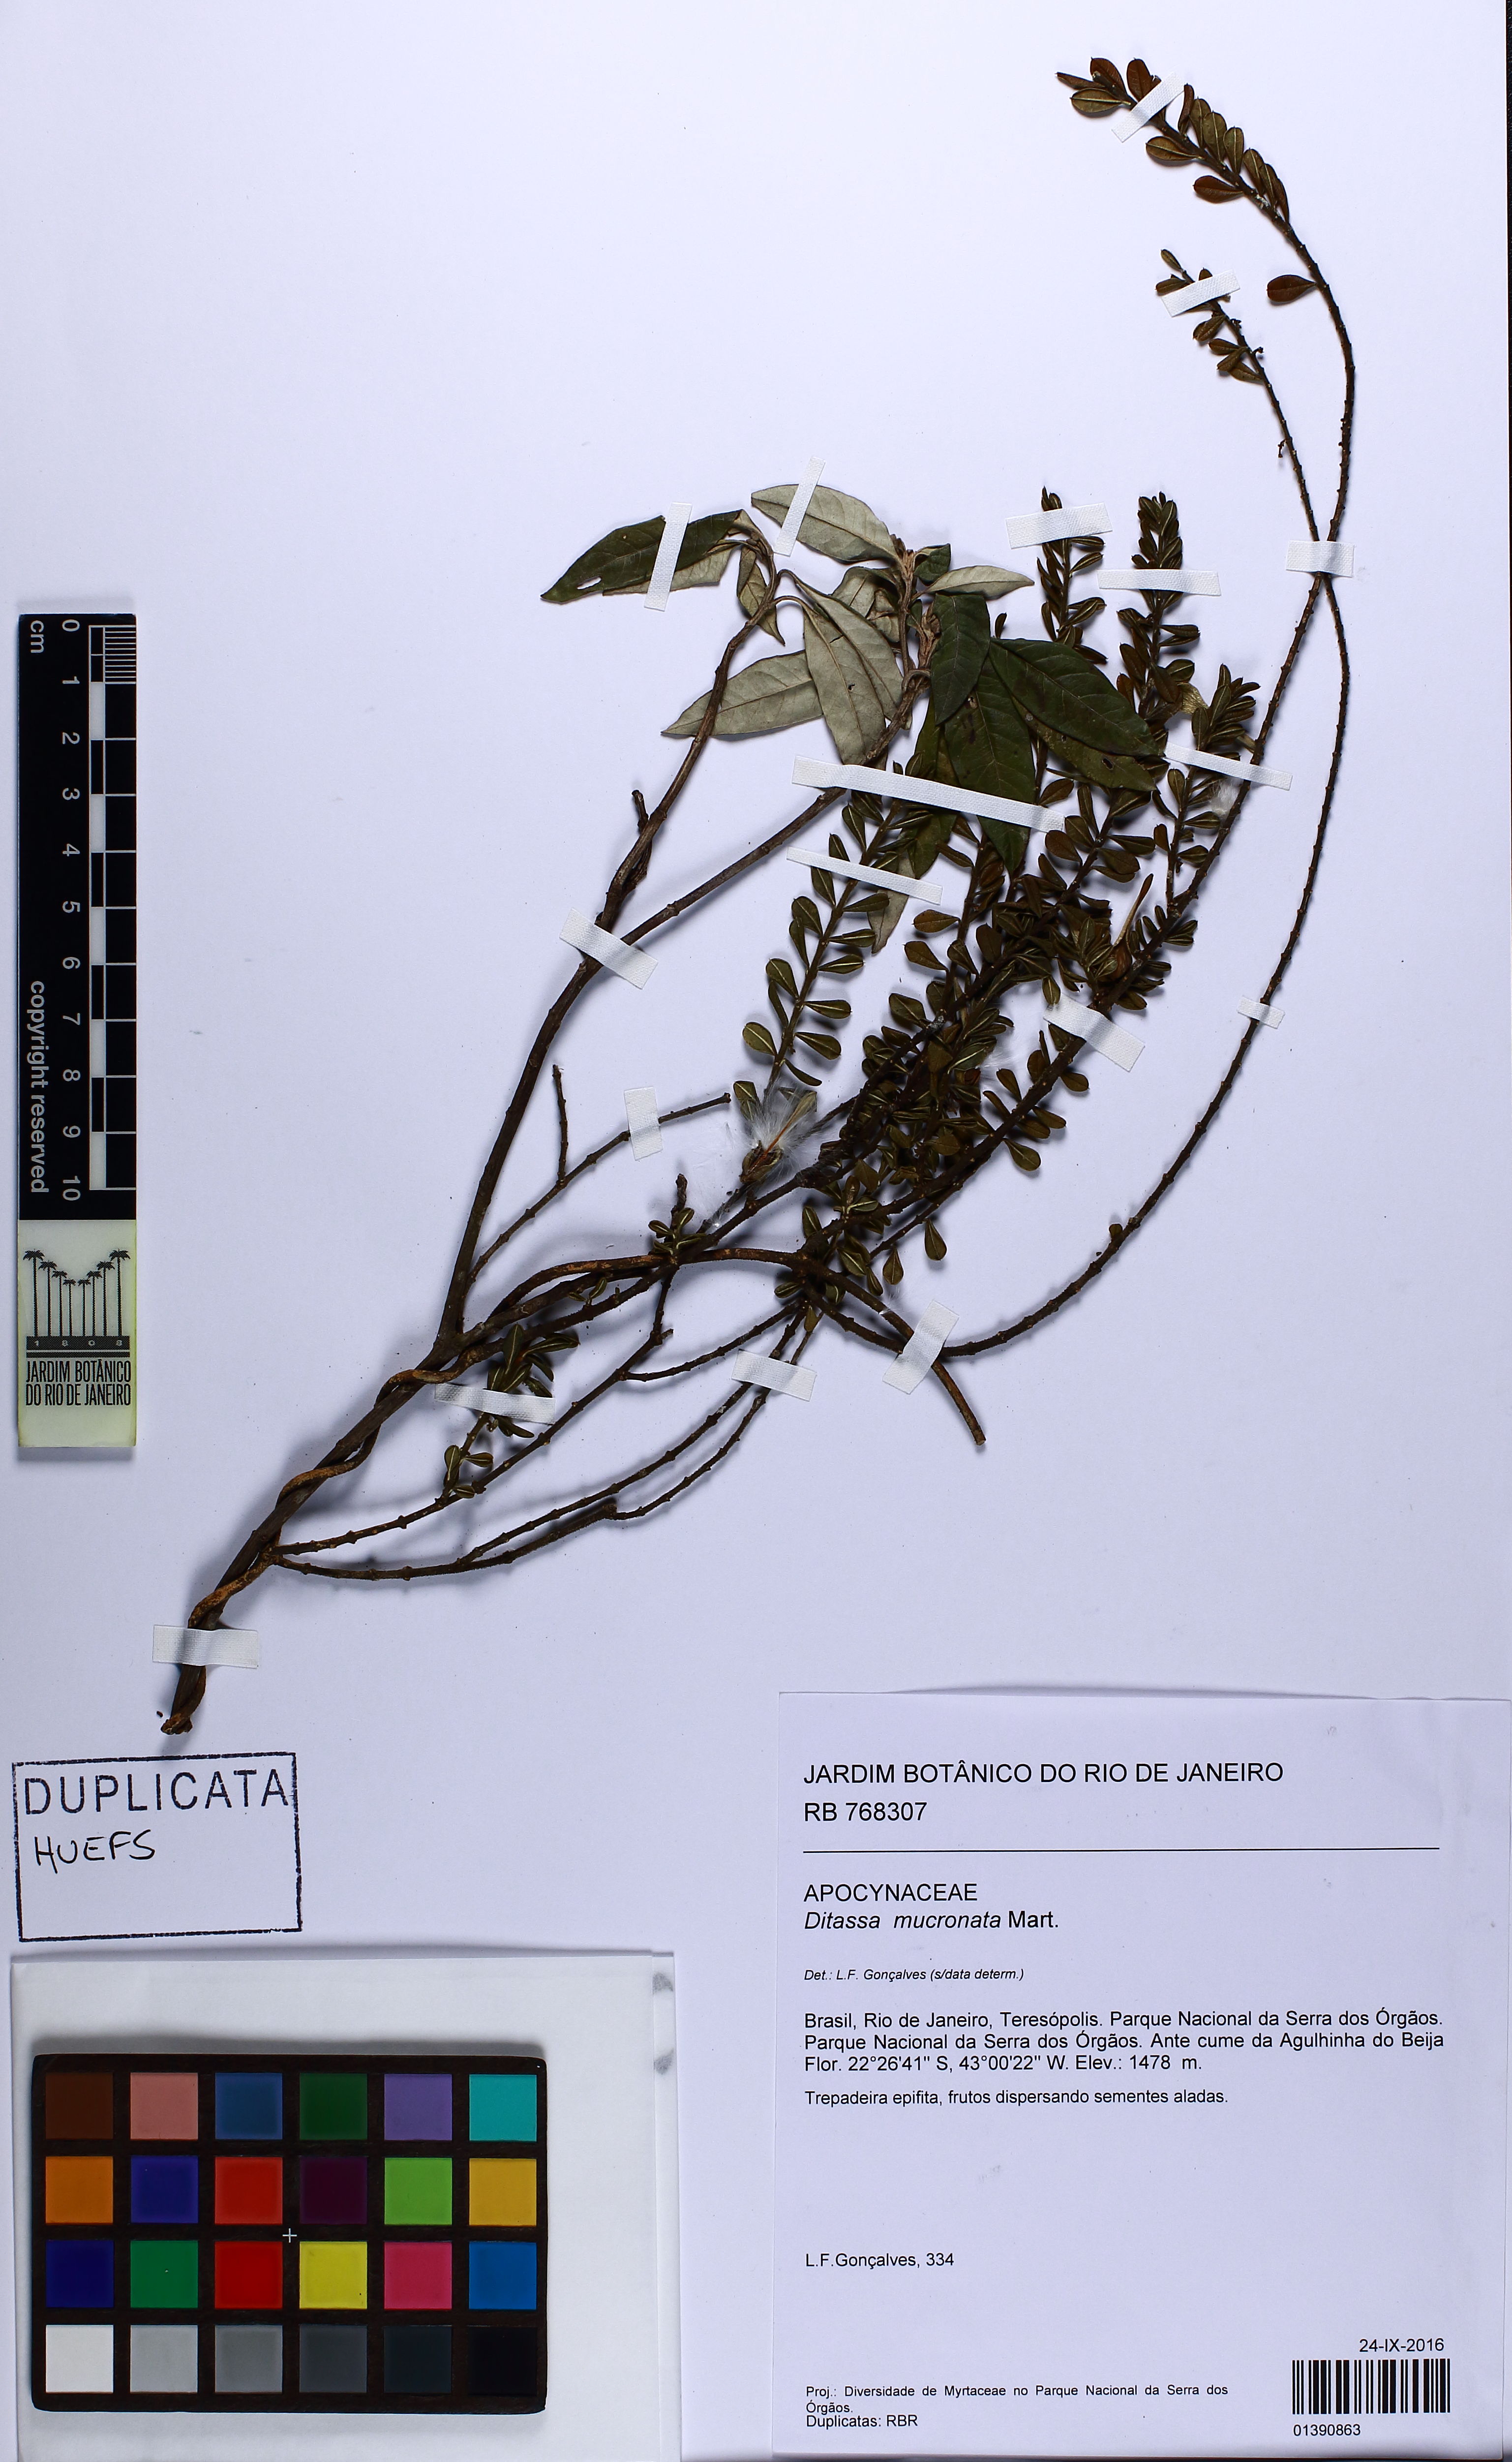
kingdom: Plantae
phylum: Tracheophyta
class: Magnoliopsida
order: Gentianales
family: Apocynaceae
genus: Ditassa
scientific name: Ditassa mucronata
